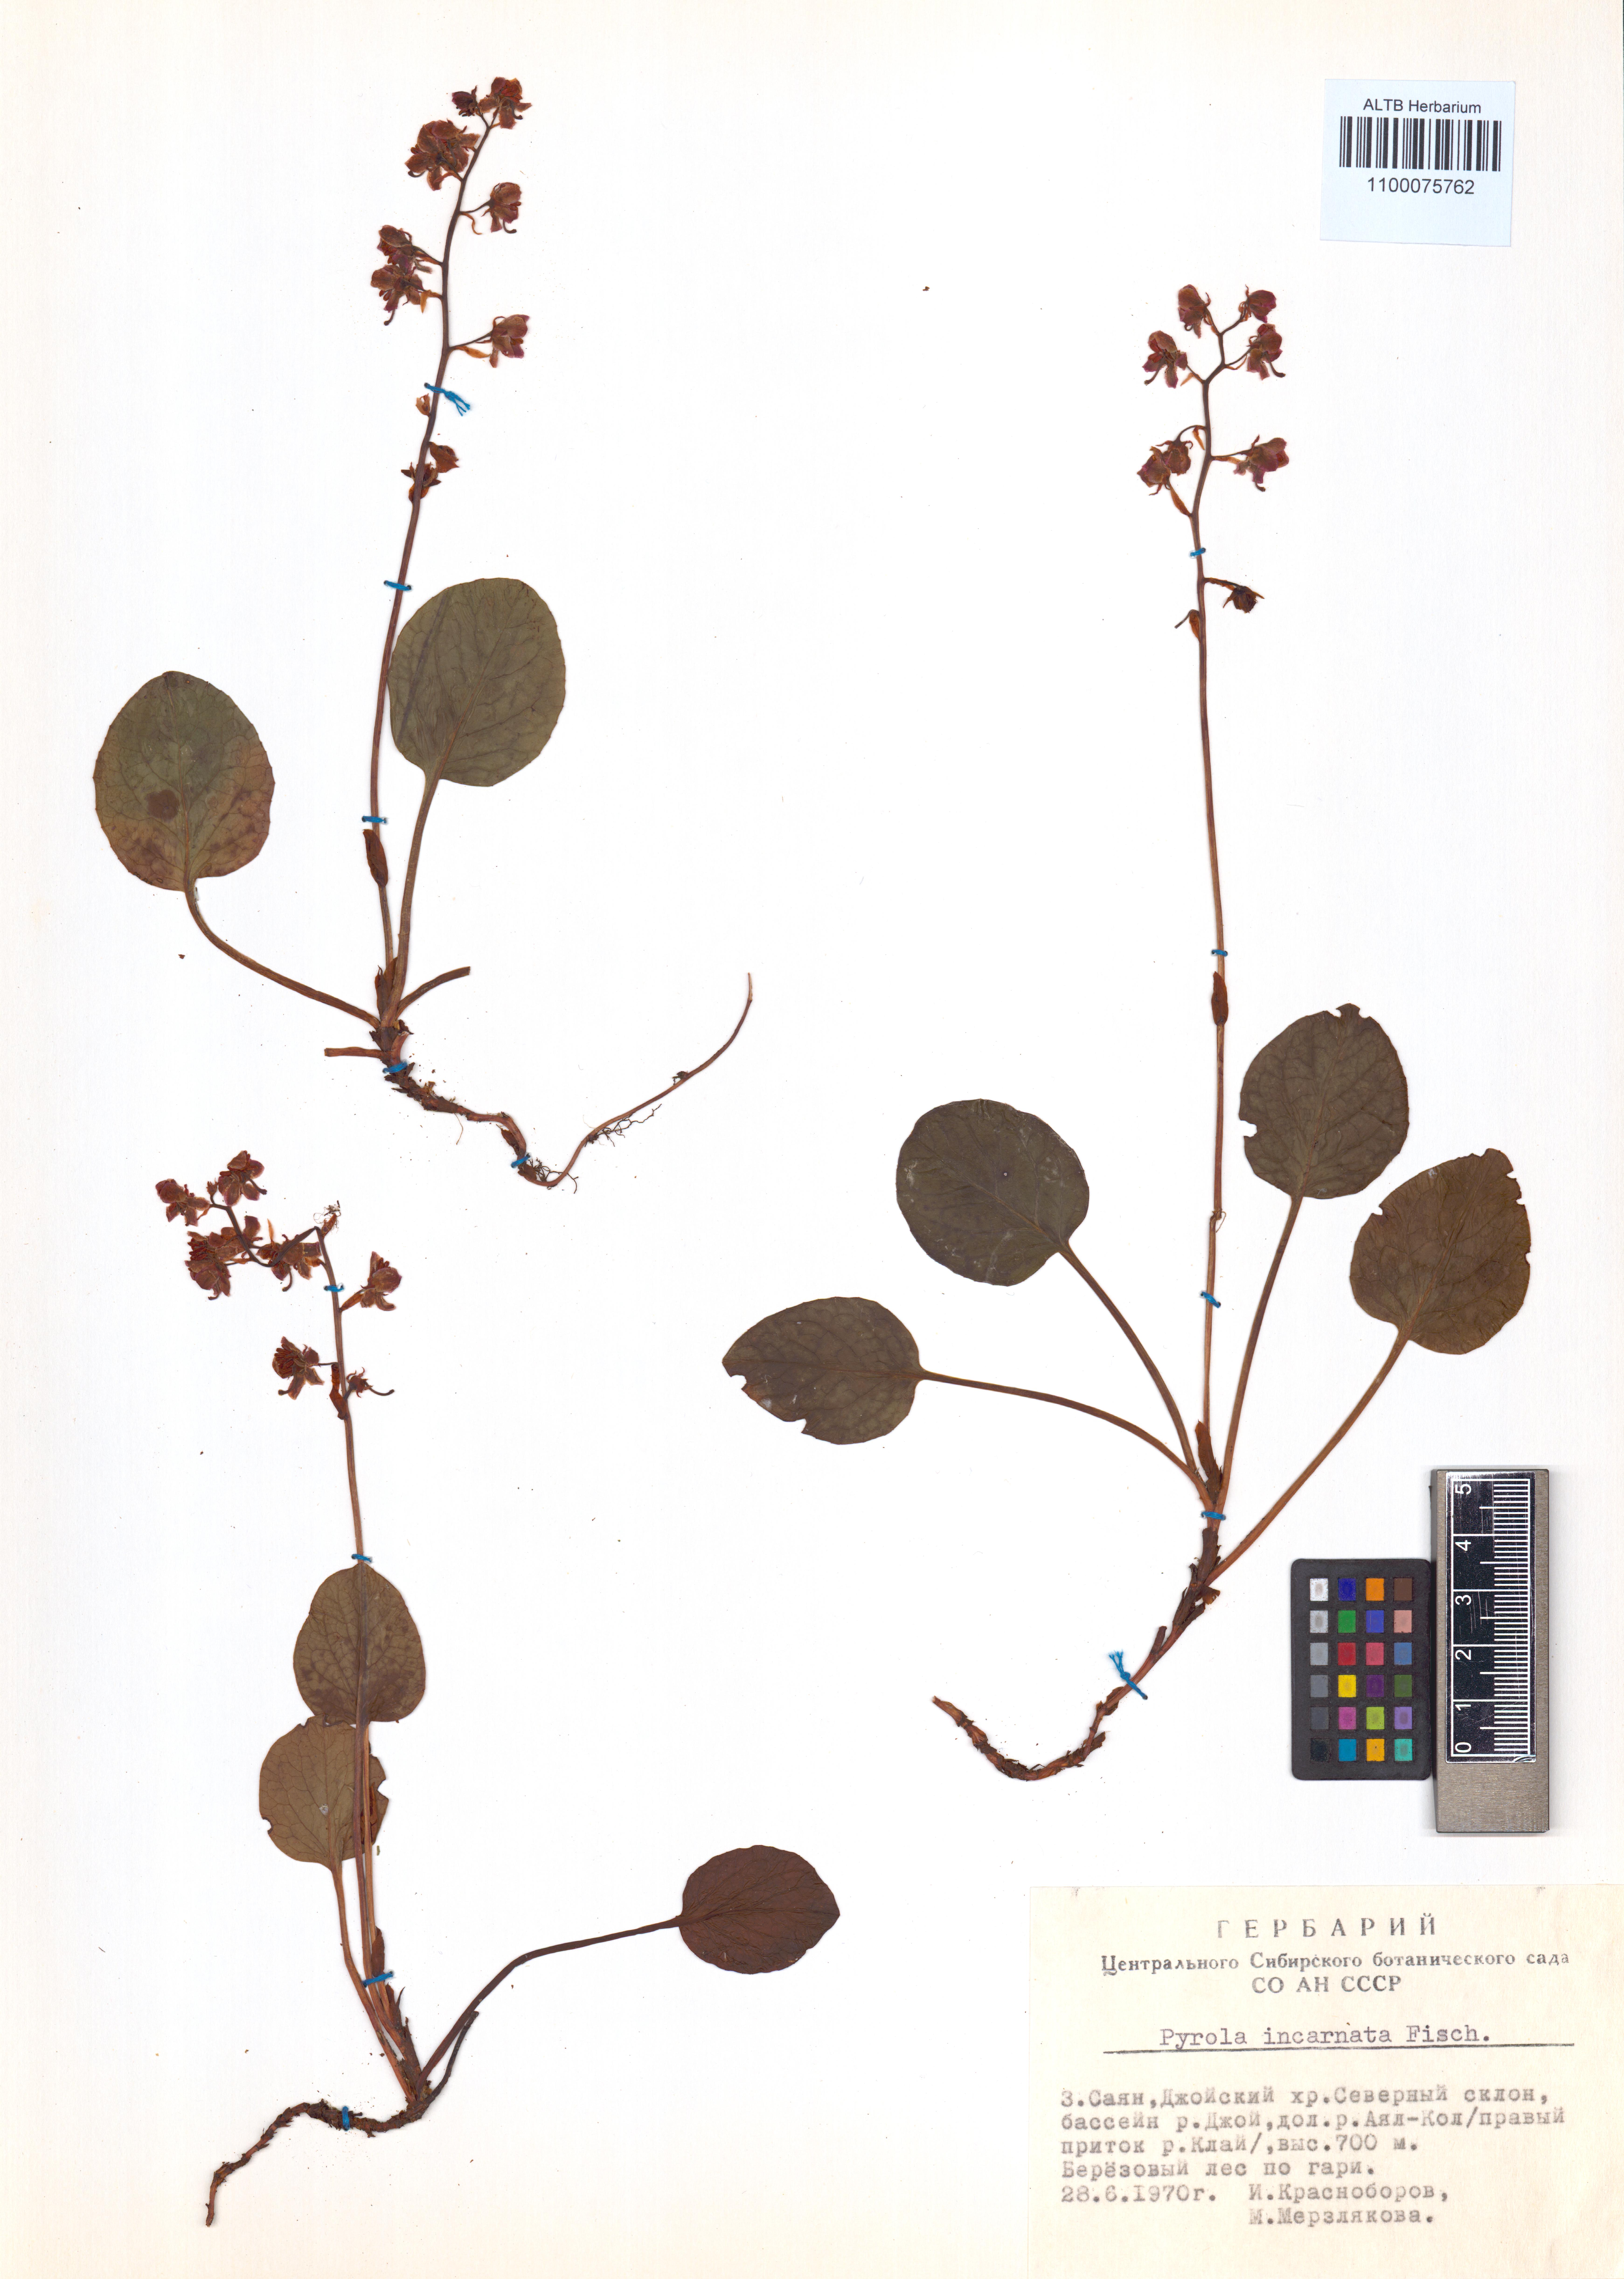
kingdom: Plantae
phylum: Tracheophyta
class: Magnoliopsida
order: Ericales
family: Ericaceae
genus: Pyrola
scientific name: Pyrola asarifolia
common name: Bog wintergreen
